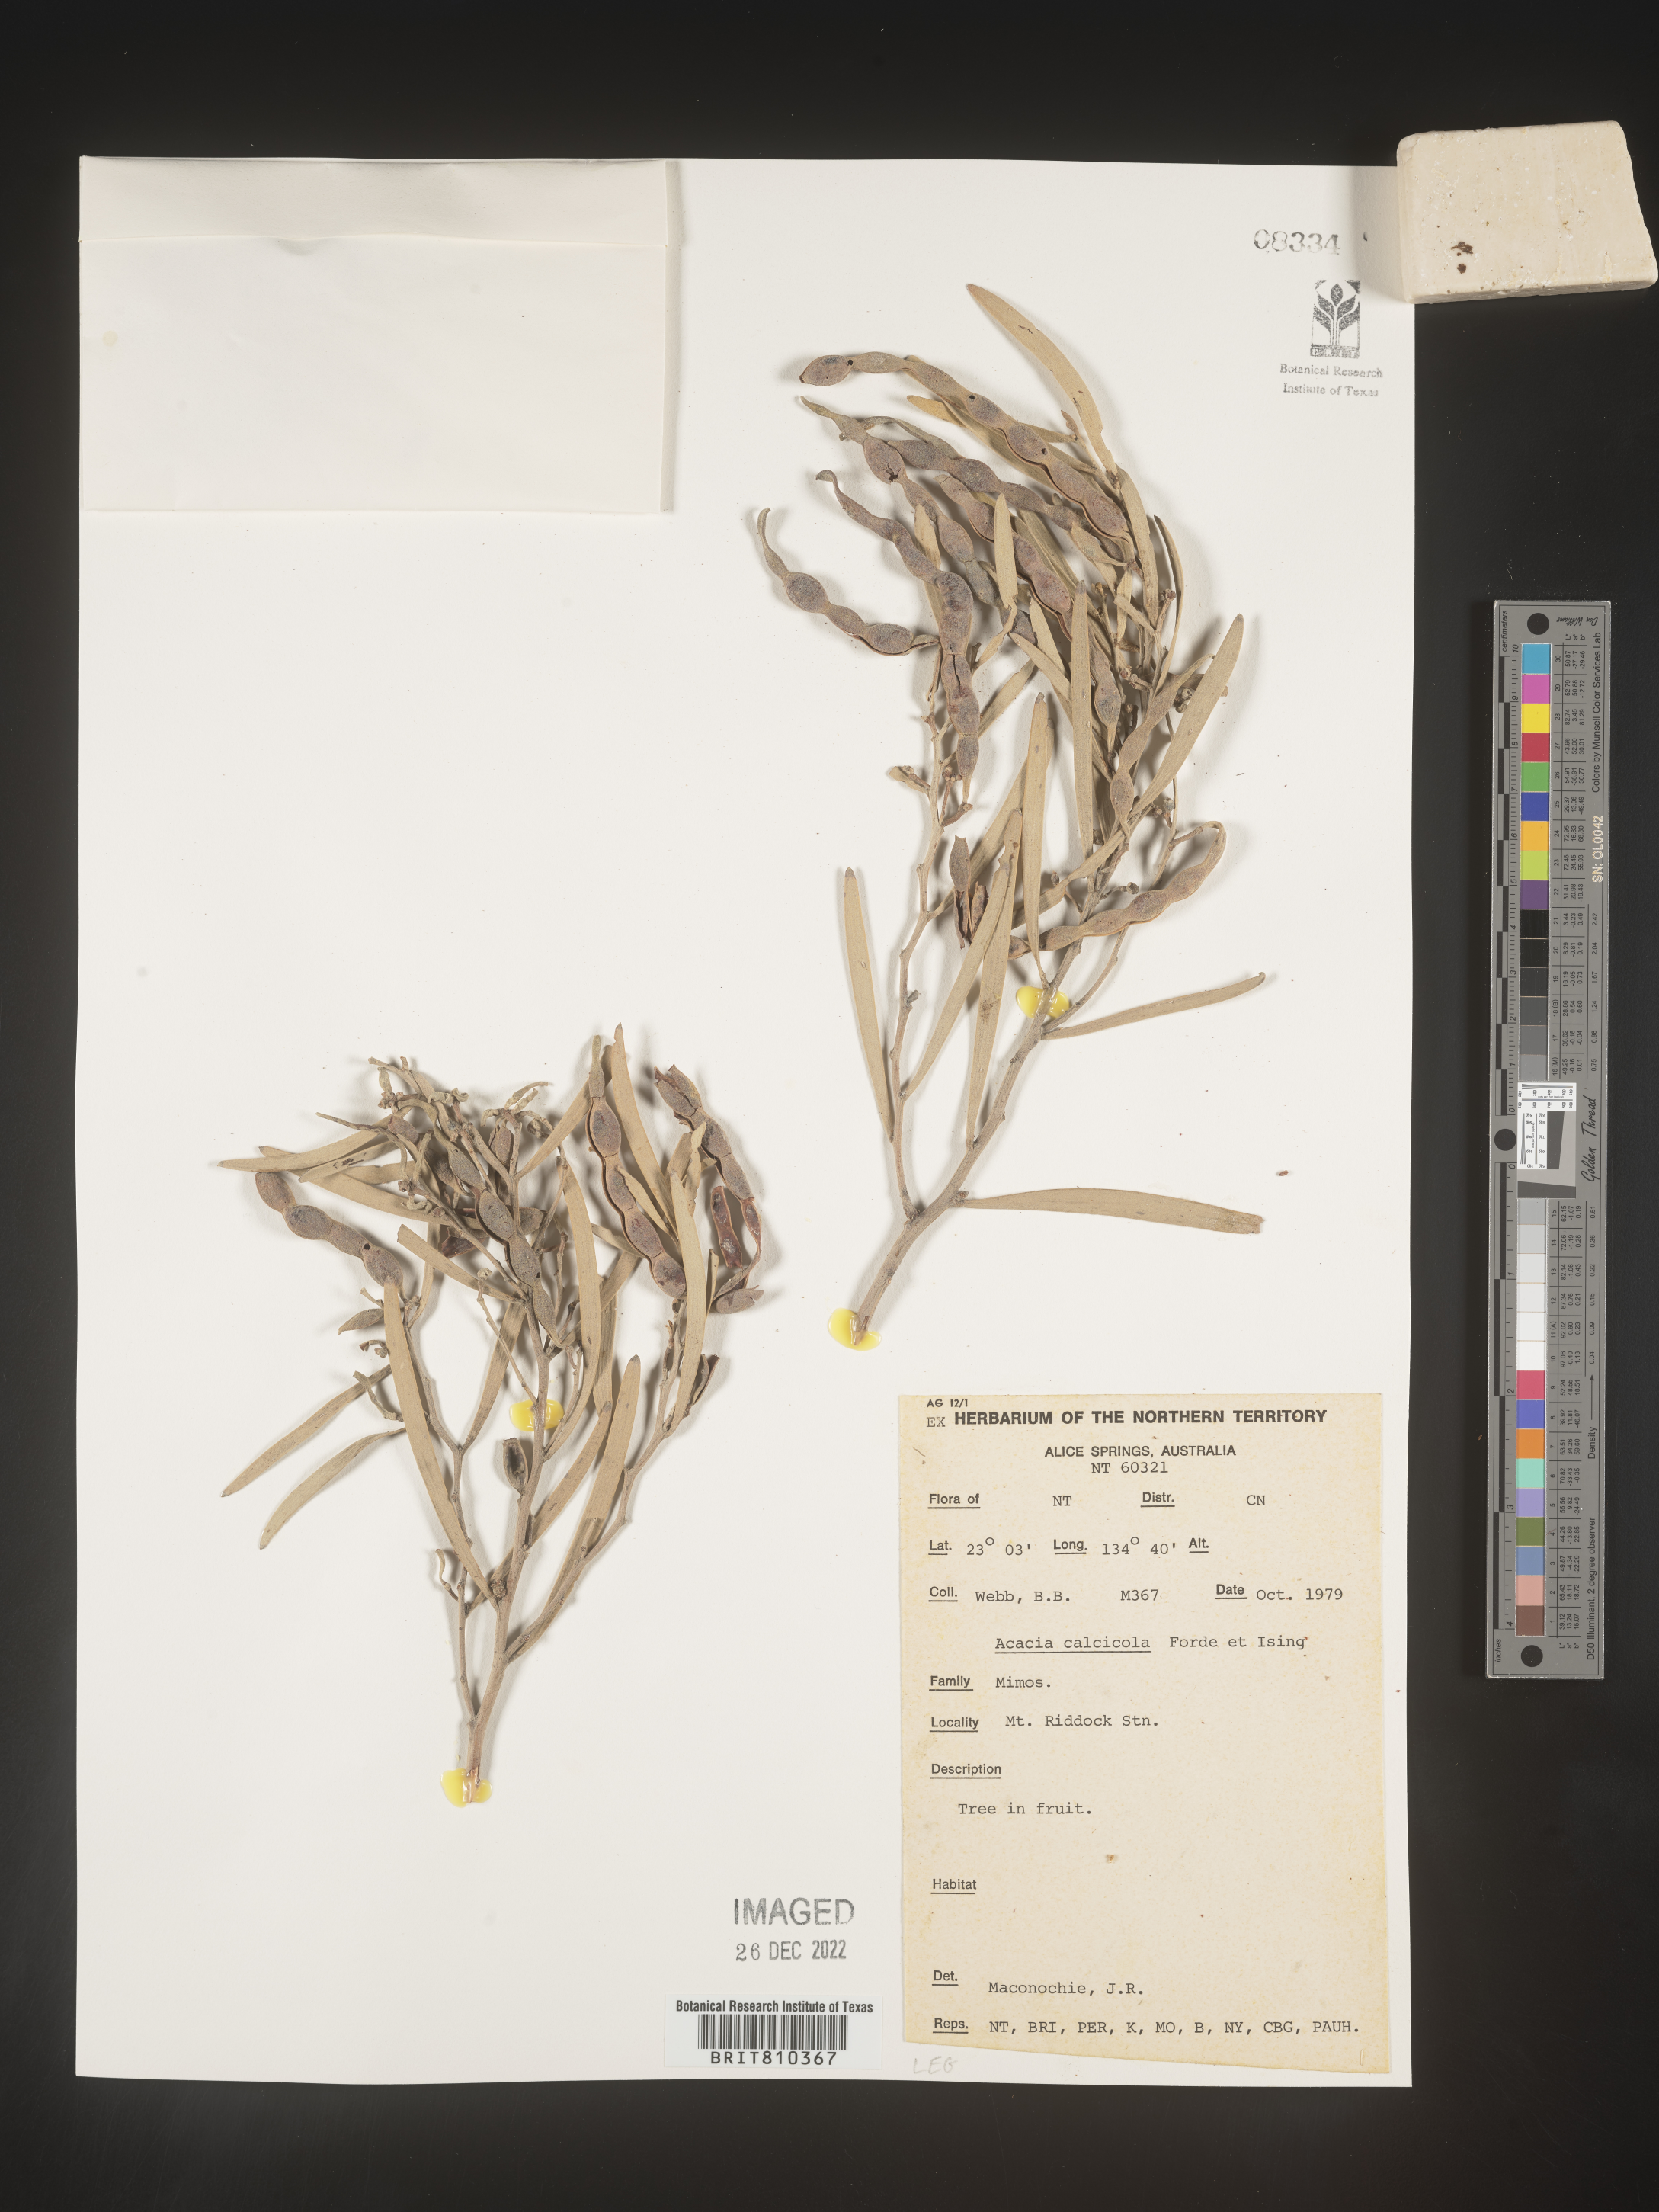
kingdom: Plantae
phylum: Tracheophyta
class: Magnoliopsida
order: Fabales
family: Fabaceae
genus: Acacia
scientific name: Acacia
